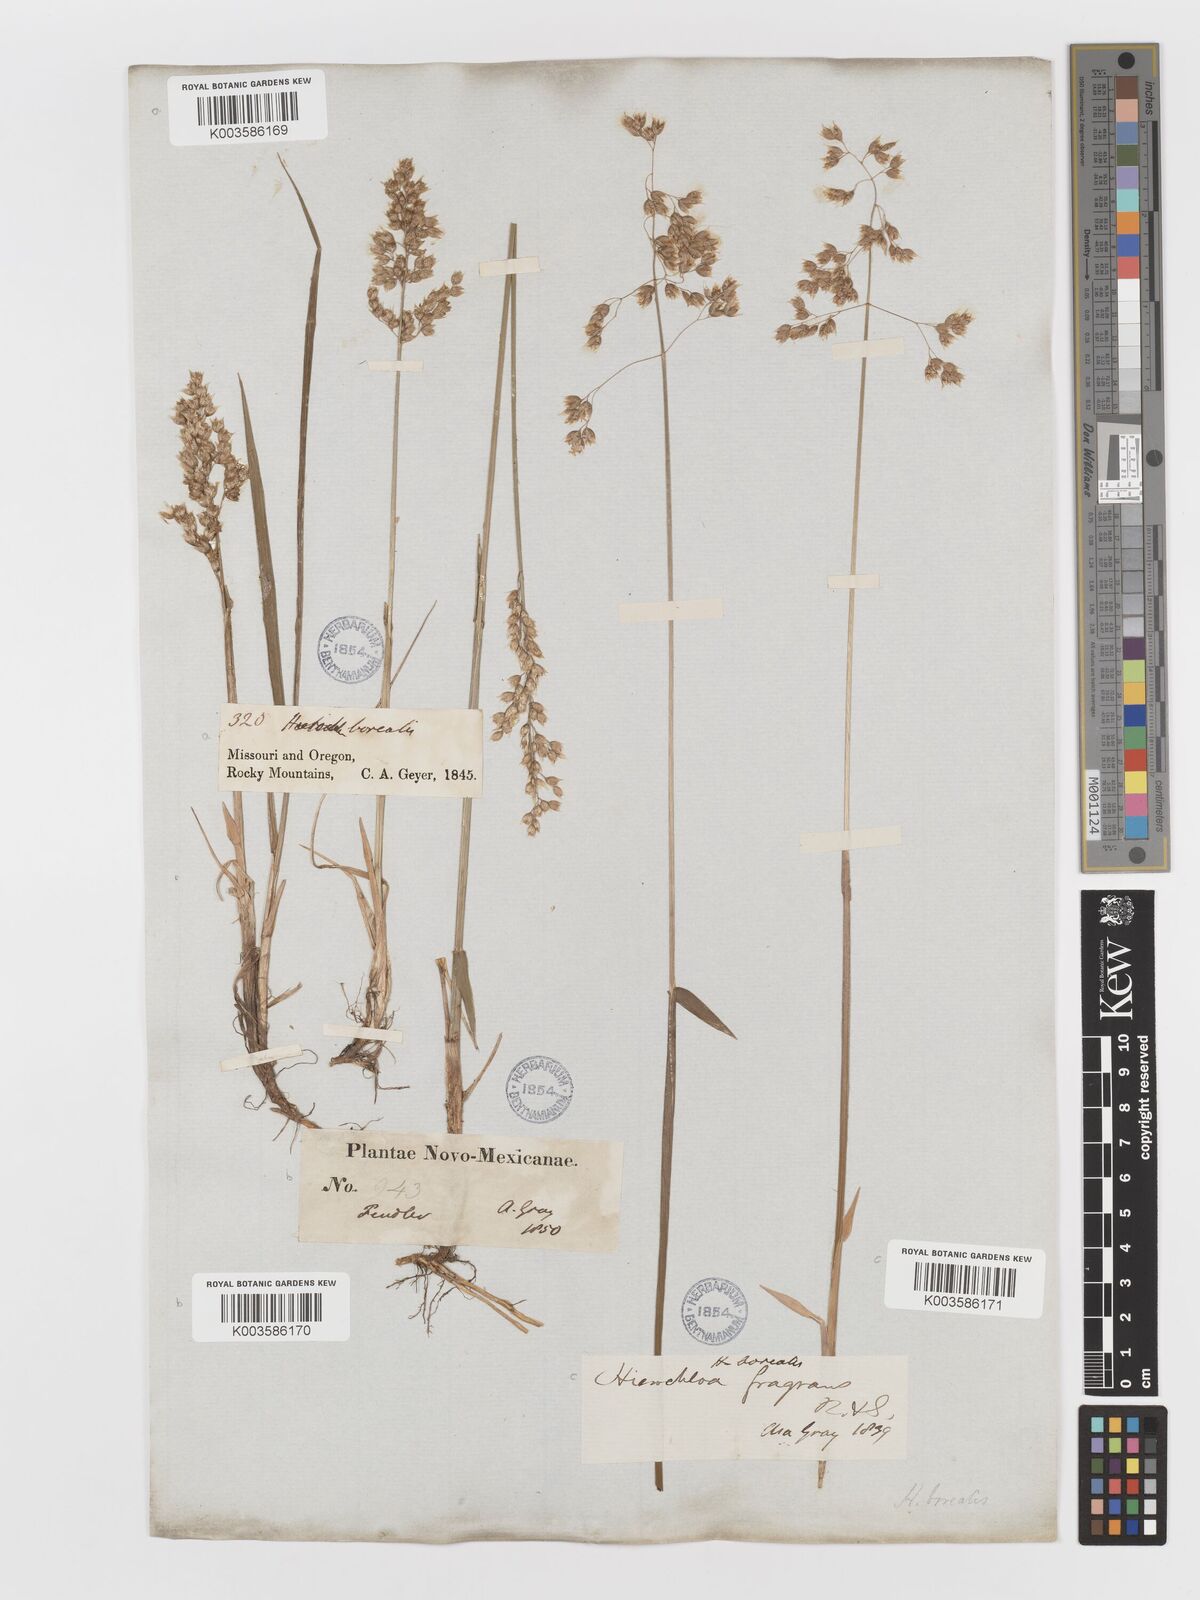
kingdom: Plantae
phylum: Tracheophyta
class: Liliopsida
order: Poales
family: Poaceae
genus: Anthoxanthum
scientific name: Anthoxanthum nitens
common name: Holy grass
